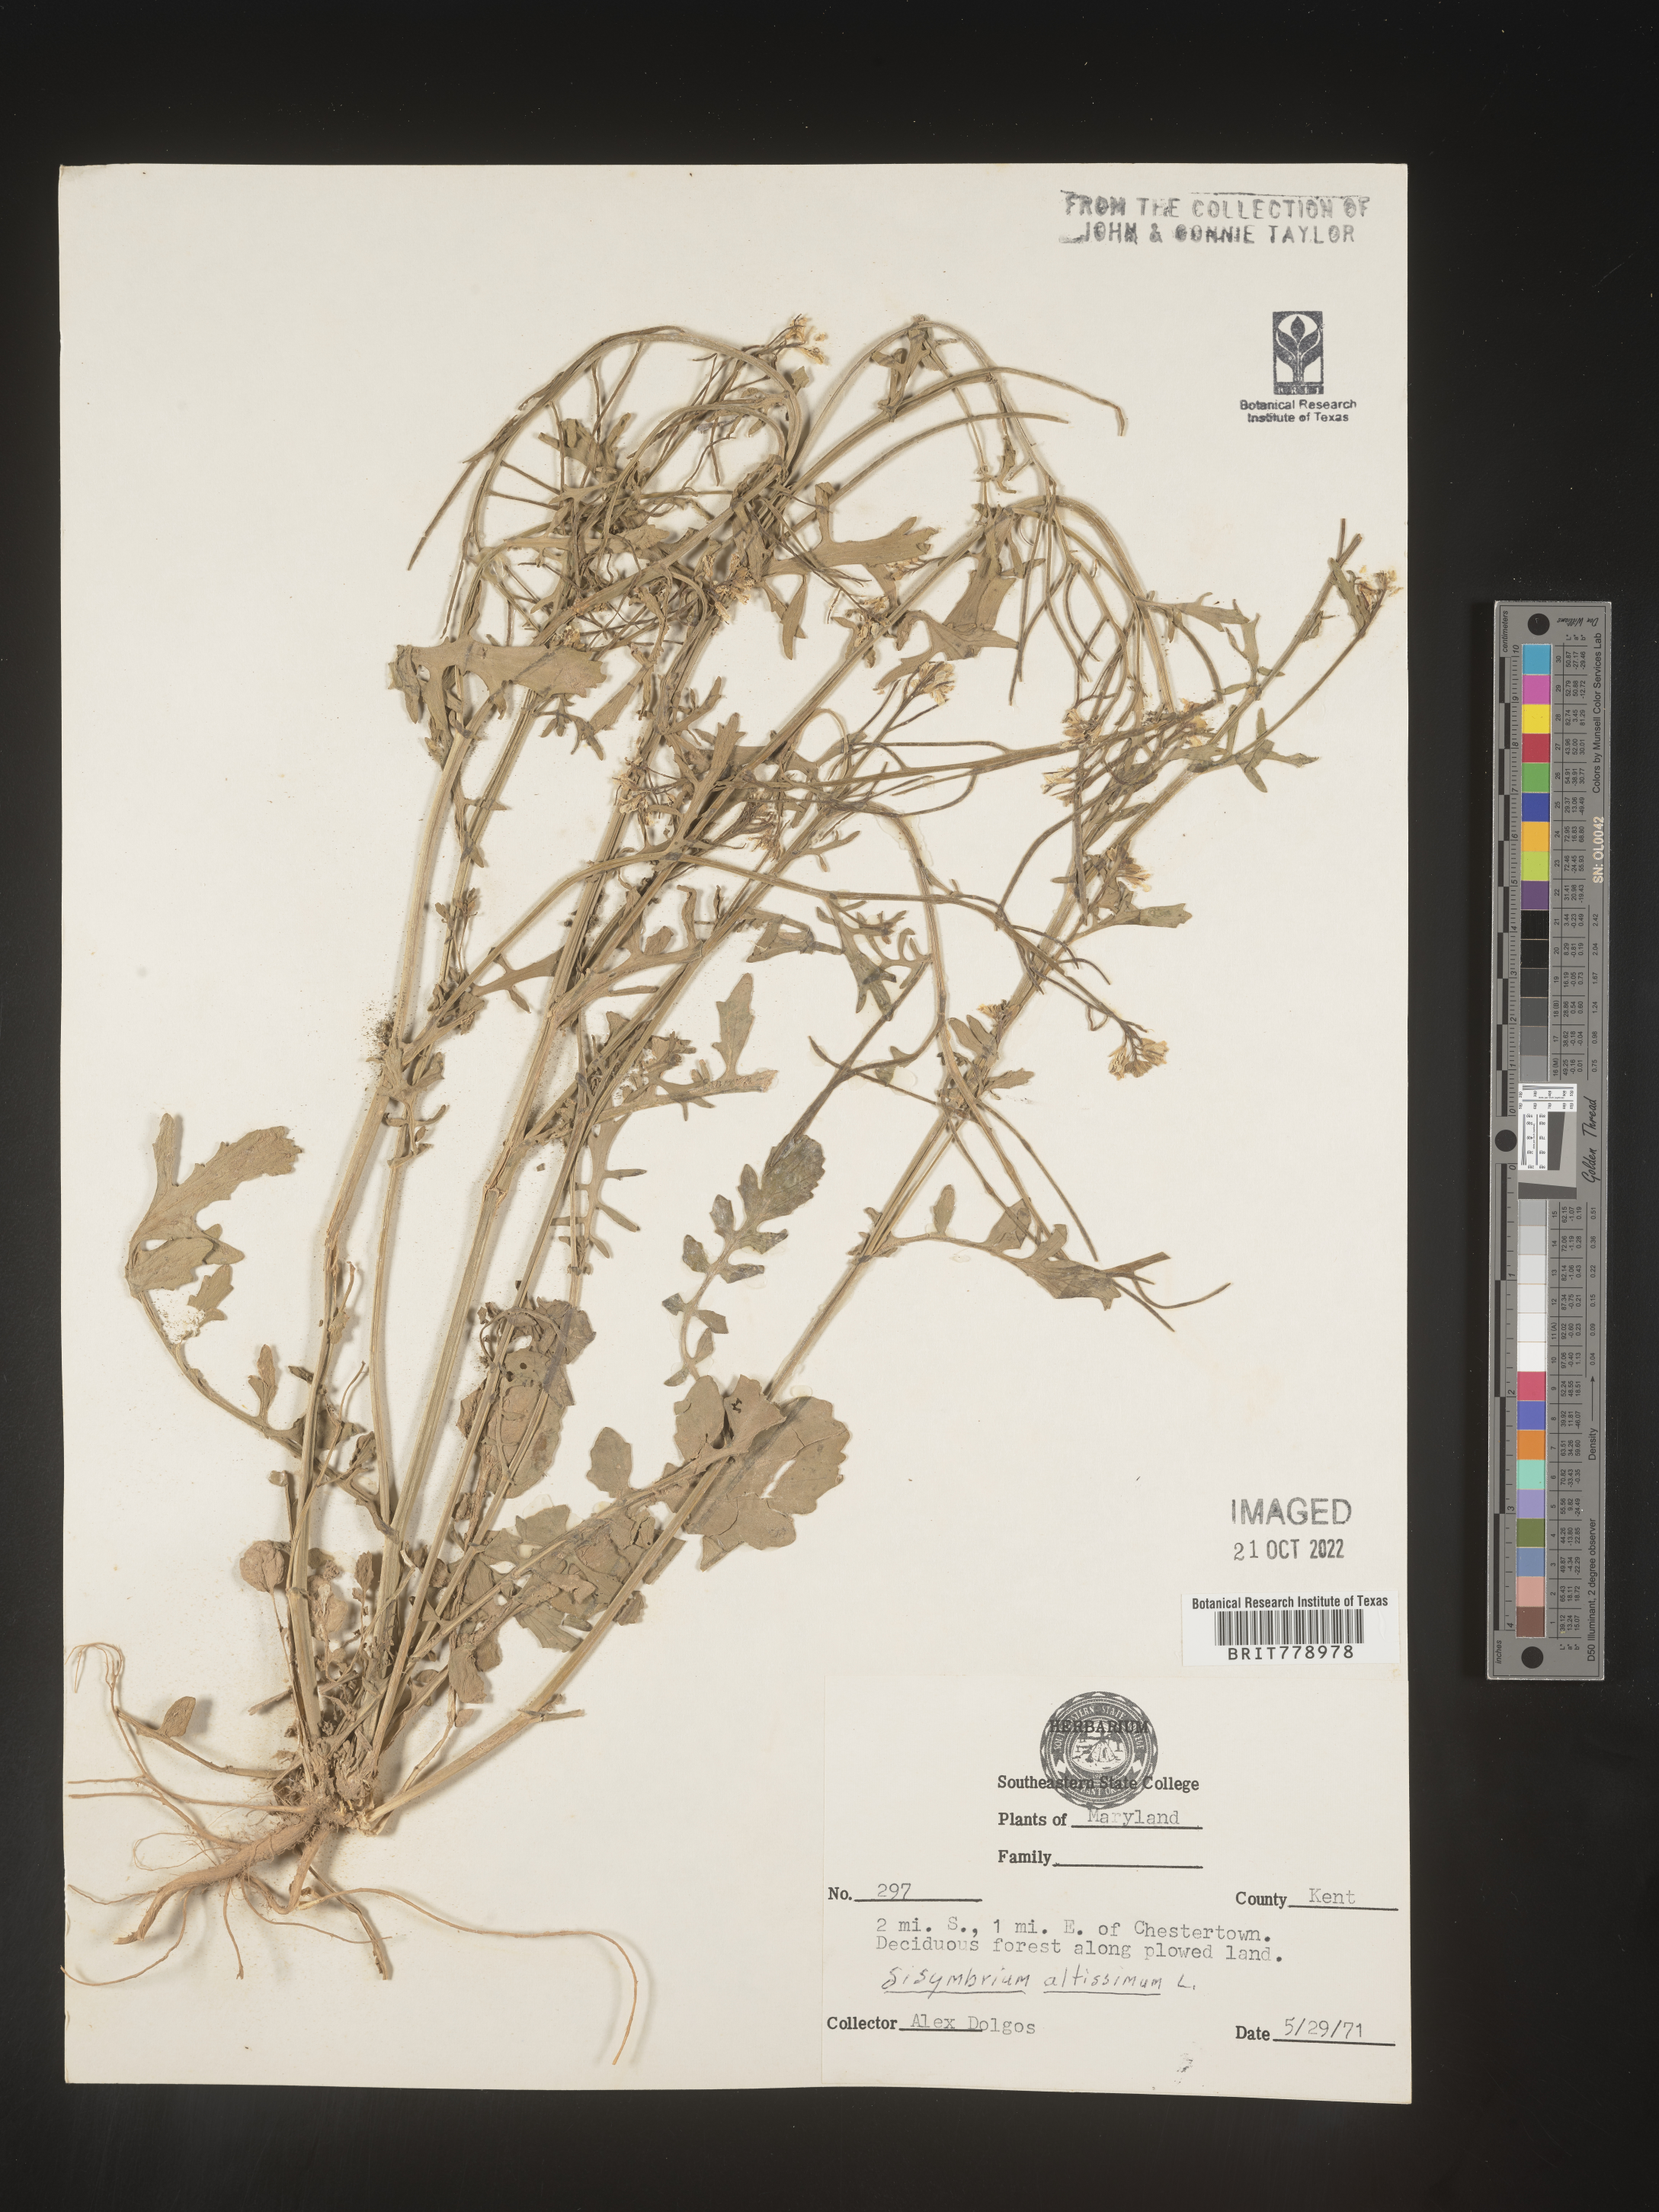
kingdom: Plantae
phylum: Tracheophyta
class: Magnoliopsida
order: Brassicales
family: Brassicaceae
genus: Sisymbrium
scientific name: Sisymbrium altissimum
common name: Tall rocket
